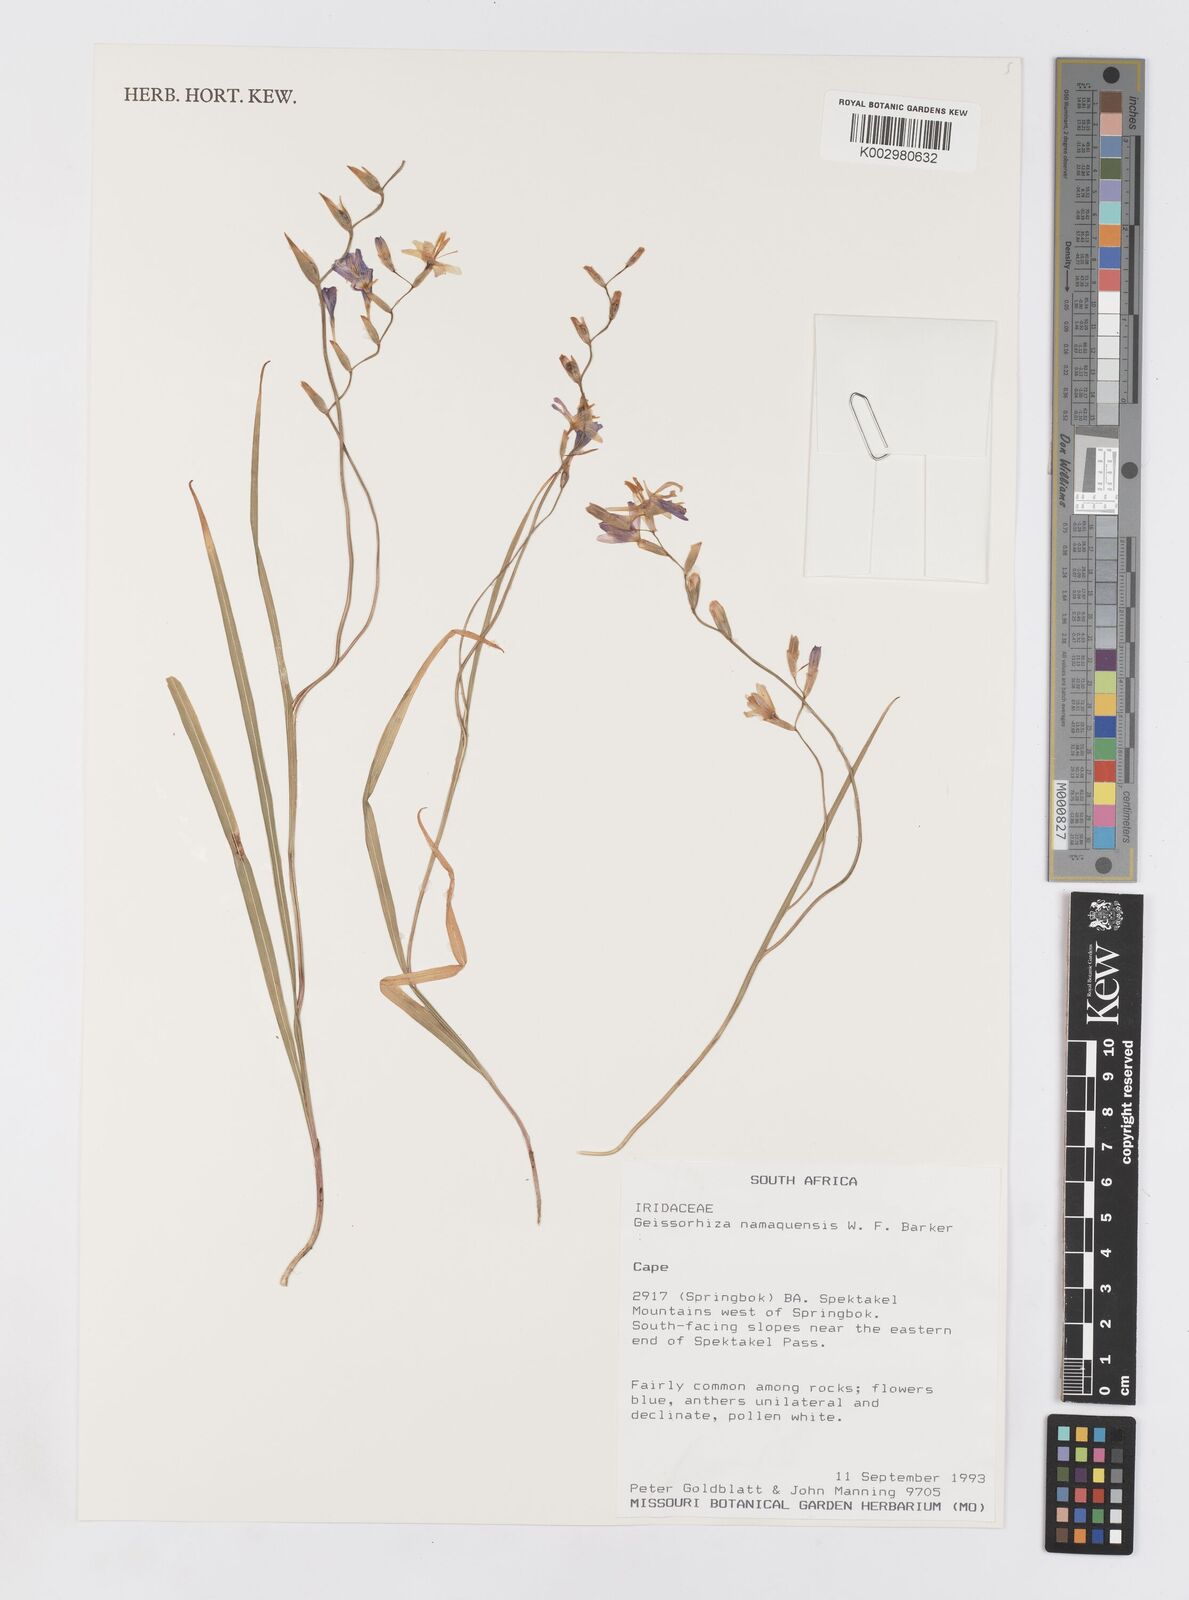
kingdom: Plantae
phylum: Tracheophyta
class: Liliopsida
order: Asparagales
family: Iridaceae
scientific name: Iridaceae
